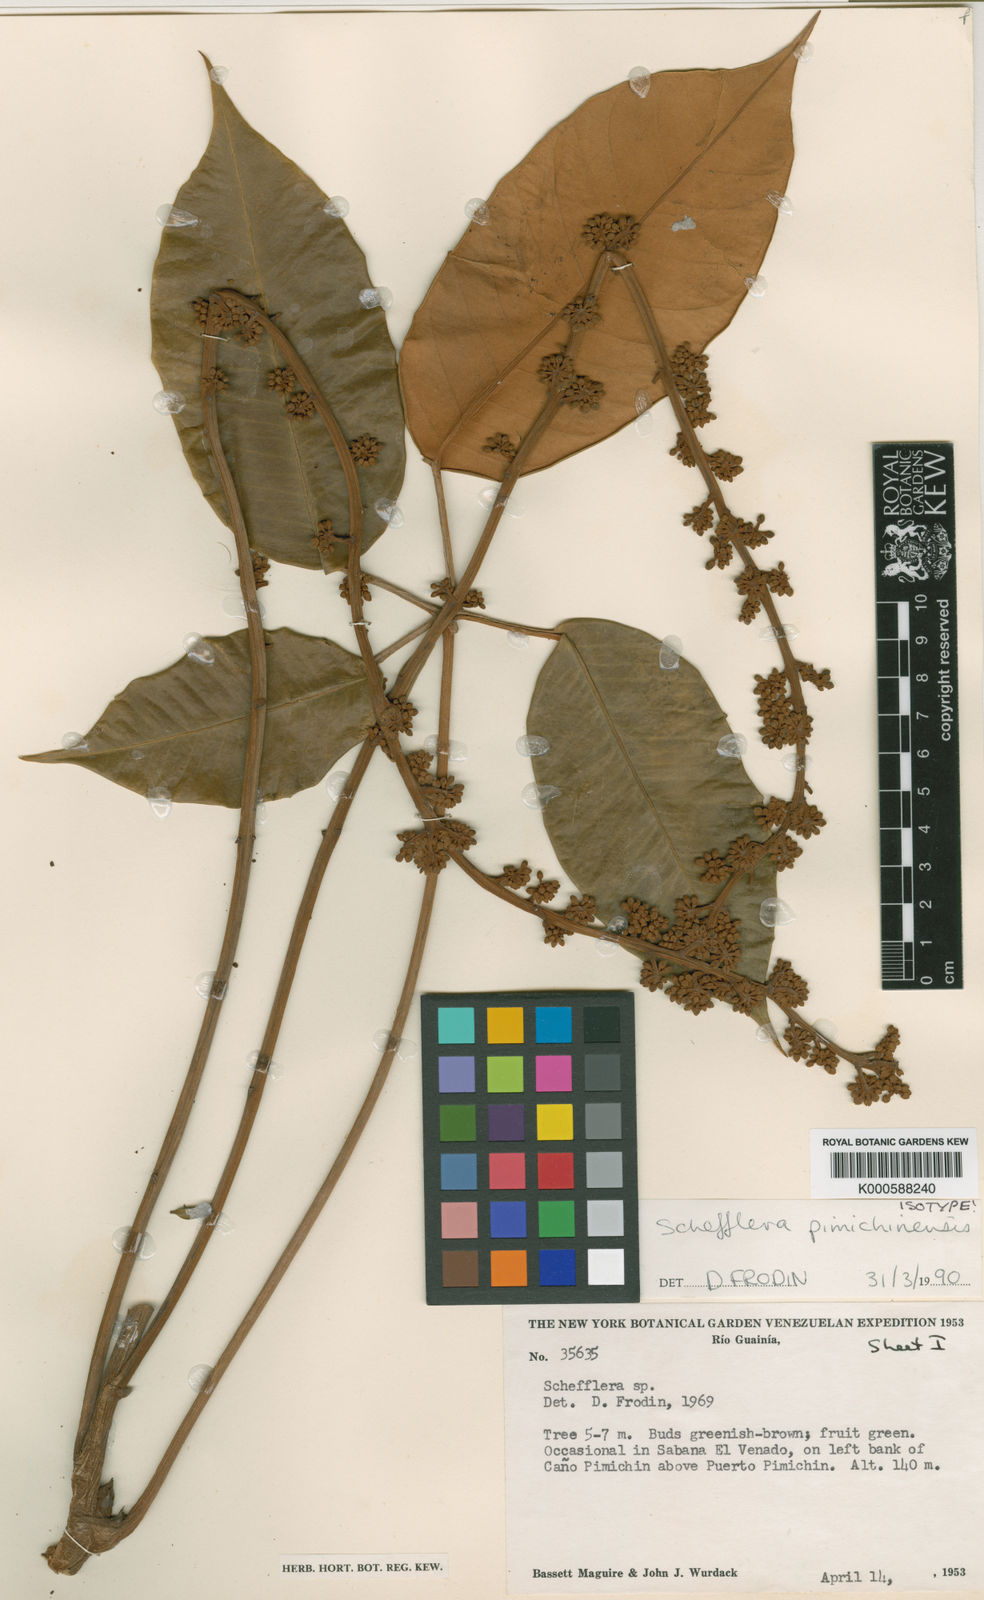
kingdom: Plantae
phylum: Tracheophyta
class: Magnoliopsida
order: Apiales
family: Araliaceae
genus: Didymopanax
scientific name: Didymopanax pimichinensis
